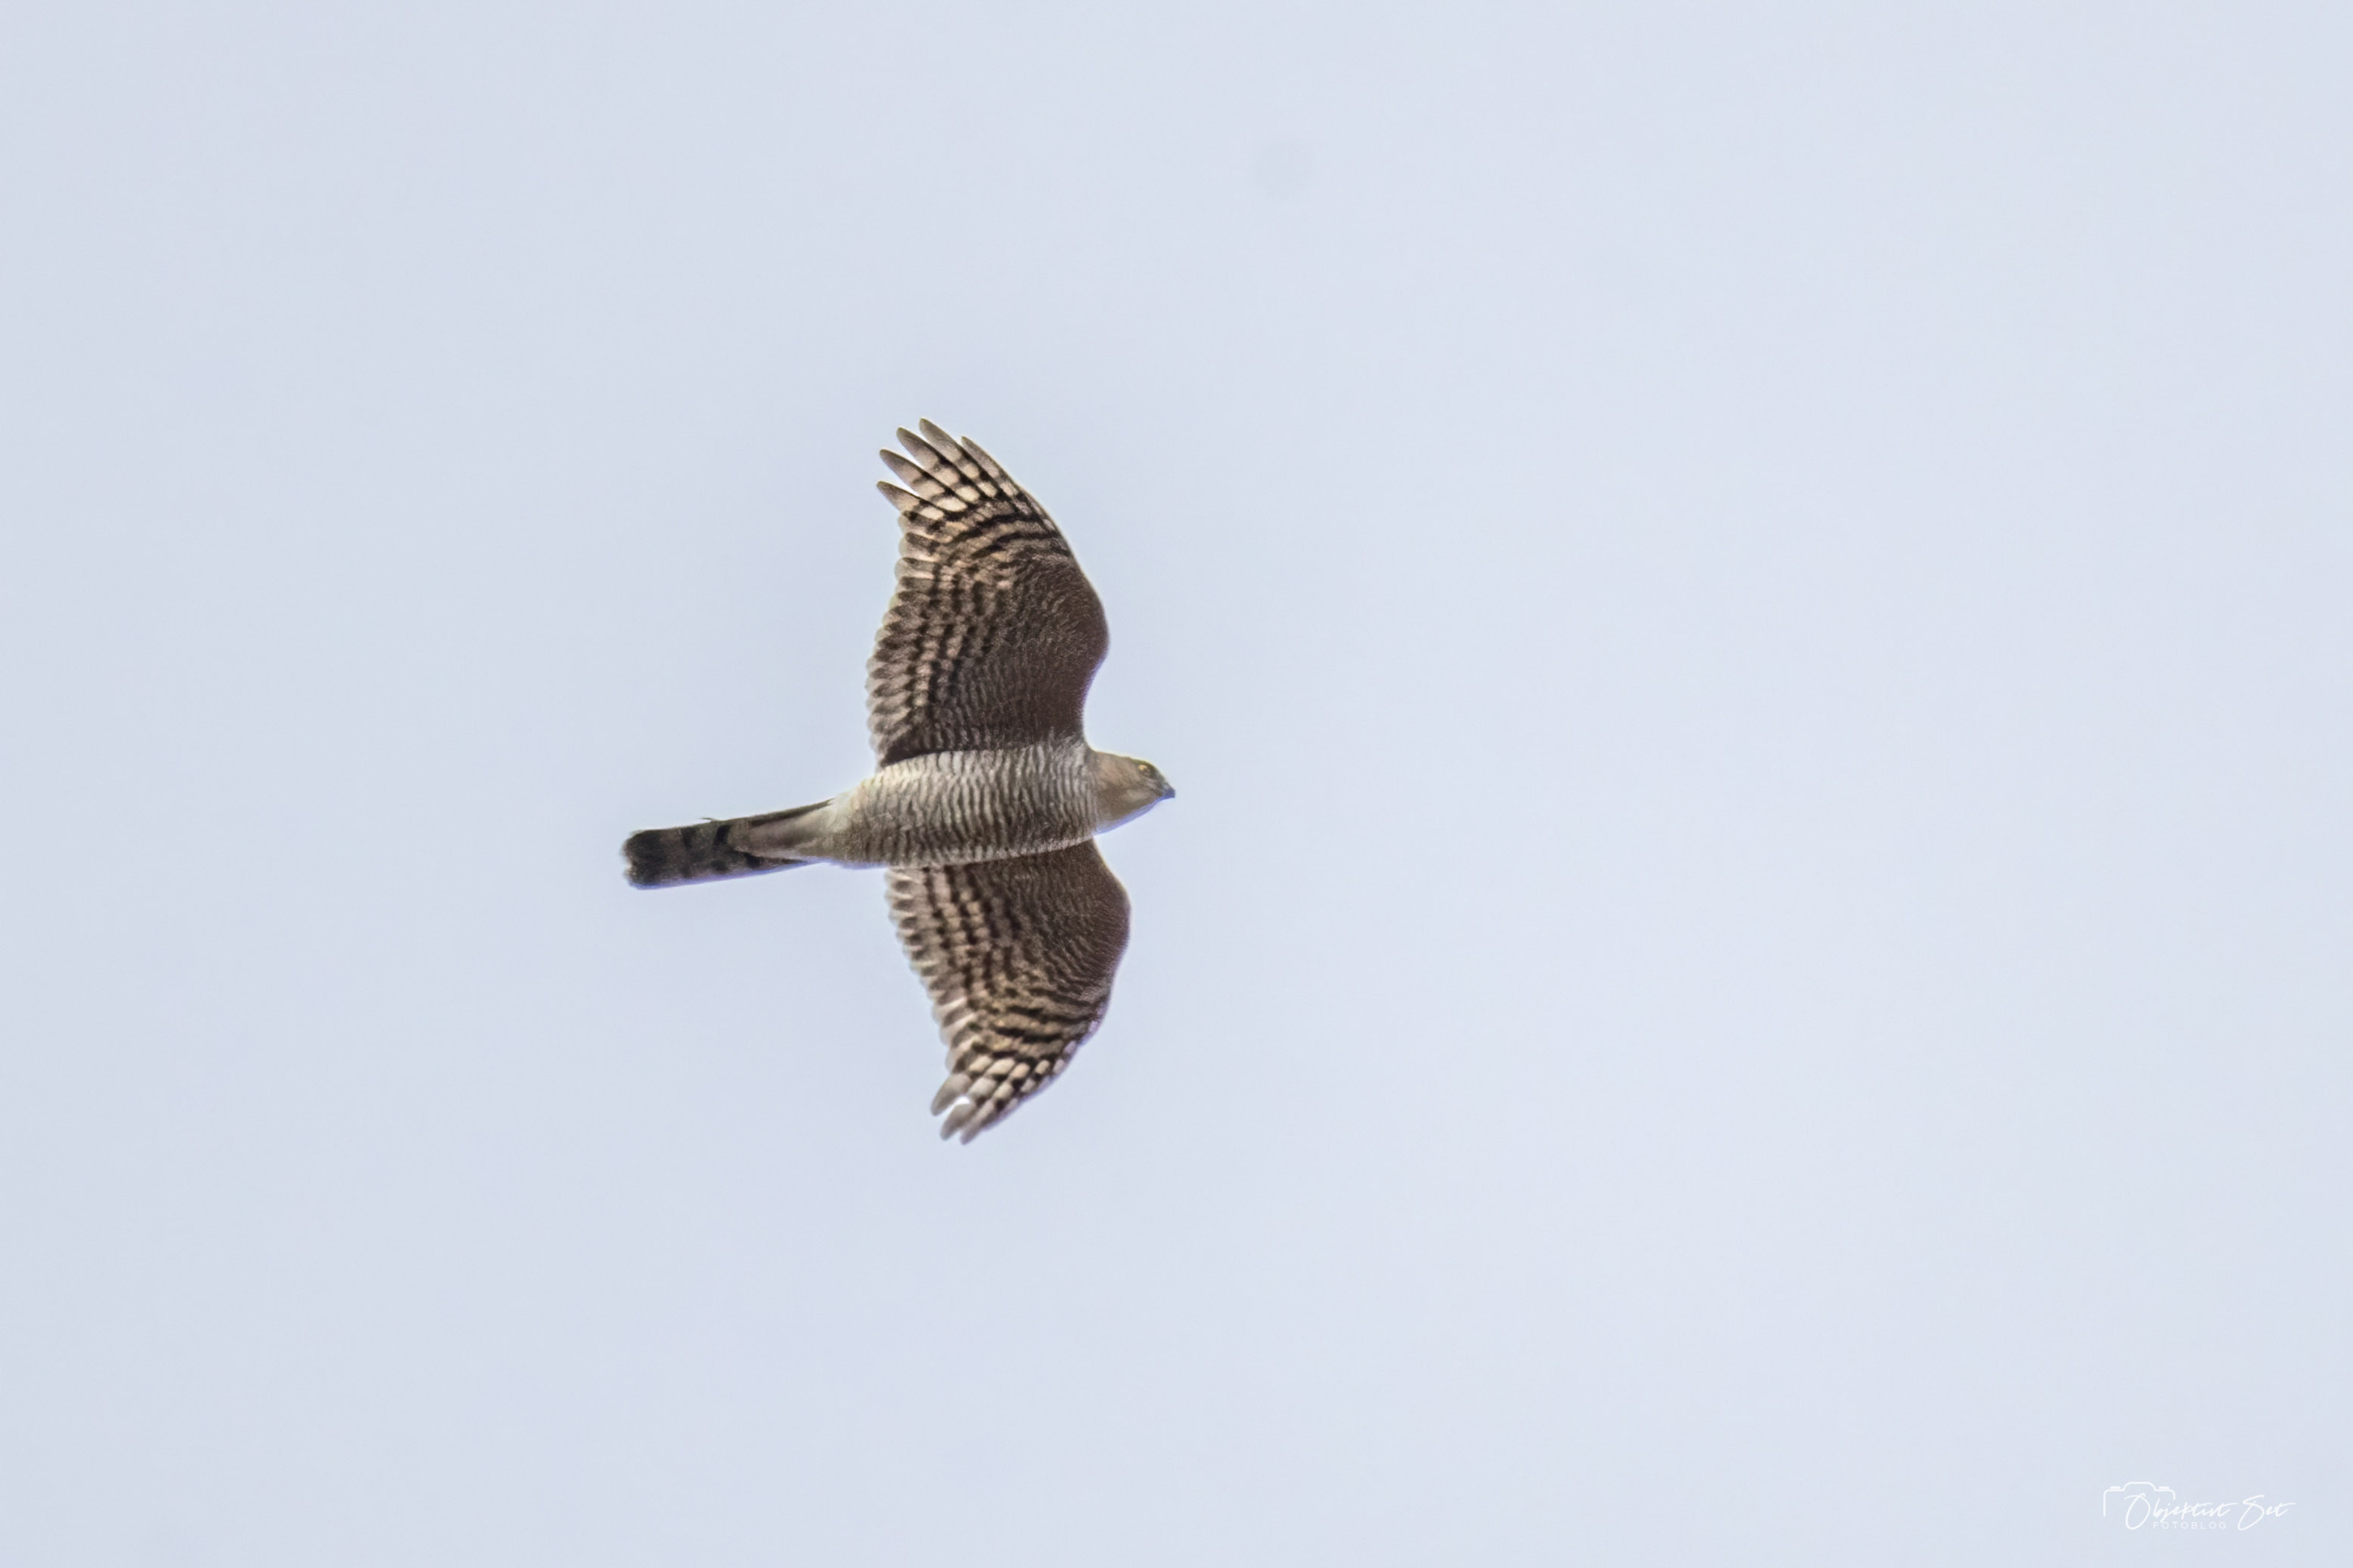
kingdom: Animalia
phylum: Chordata
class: Aves
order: Accipitriformes
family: Accipitridae
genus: Accipiter
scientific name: Accipiter nisus
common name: Spurvehøg
